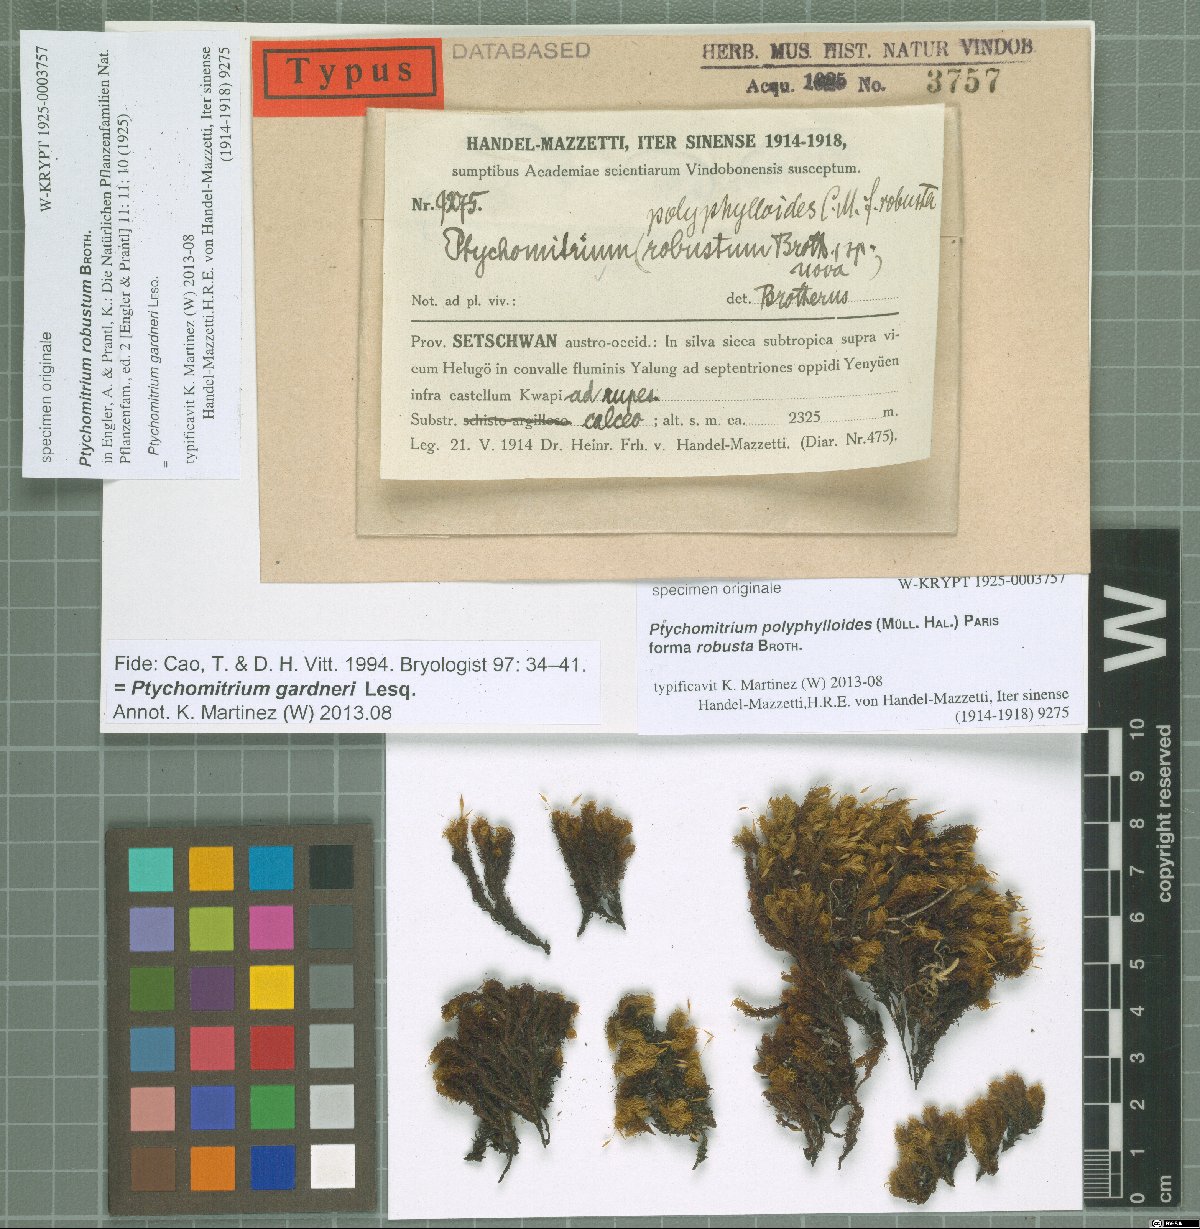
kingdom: Plantae
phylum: Bryophyta
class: Bryopsida
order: Grimmiales
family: Ptychomitriaceae
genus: Ptychomitrium
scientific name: Ptychomitrium
